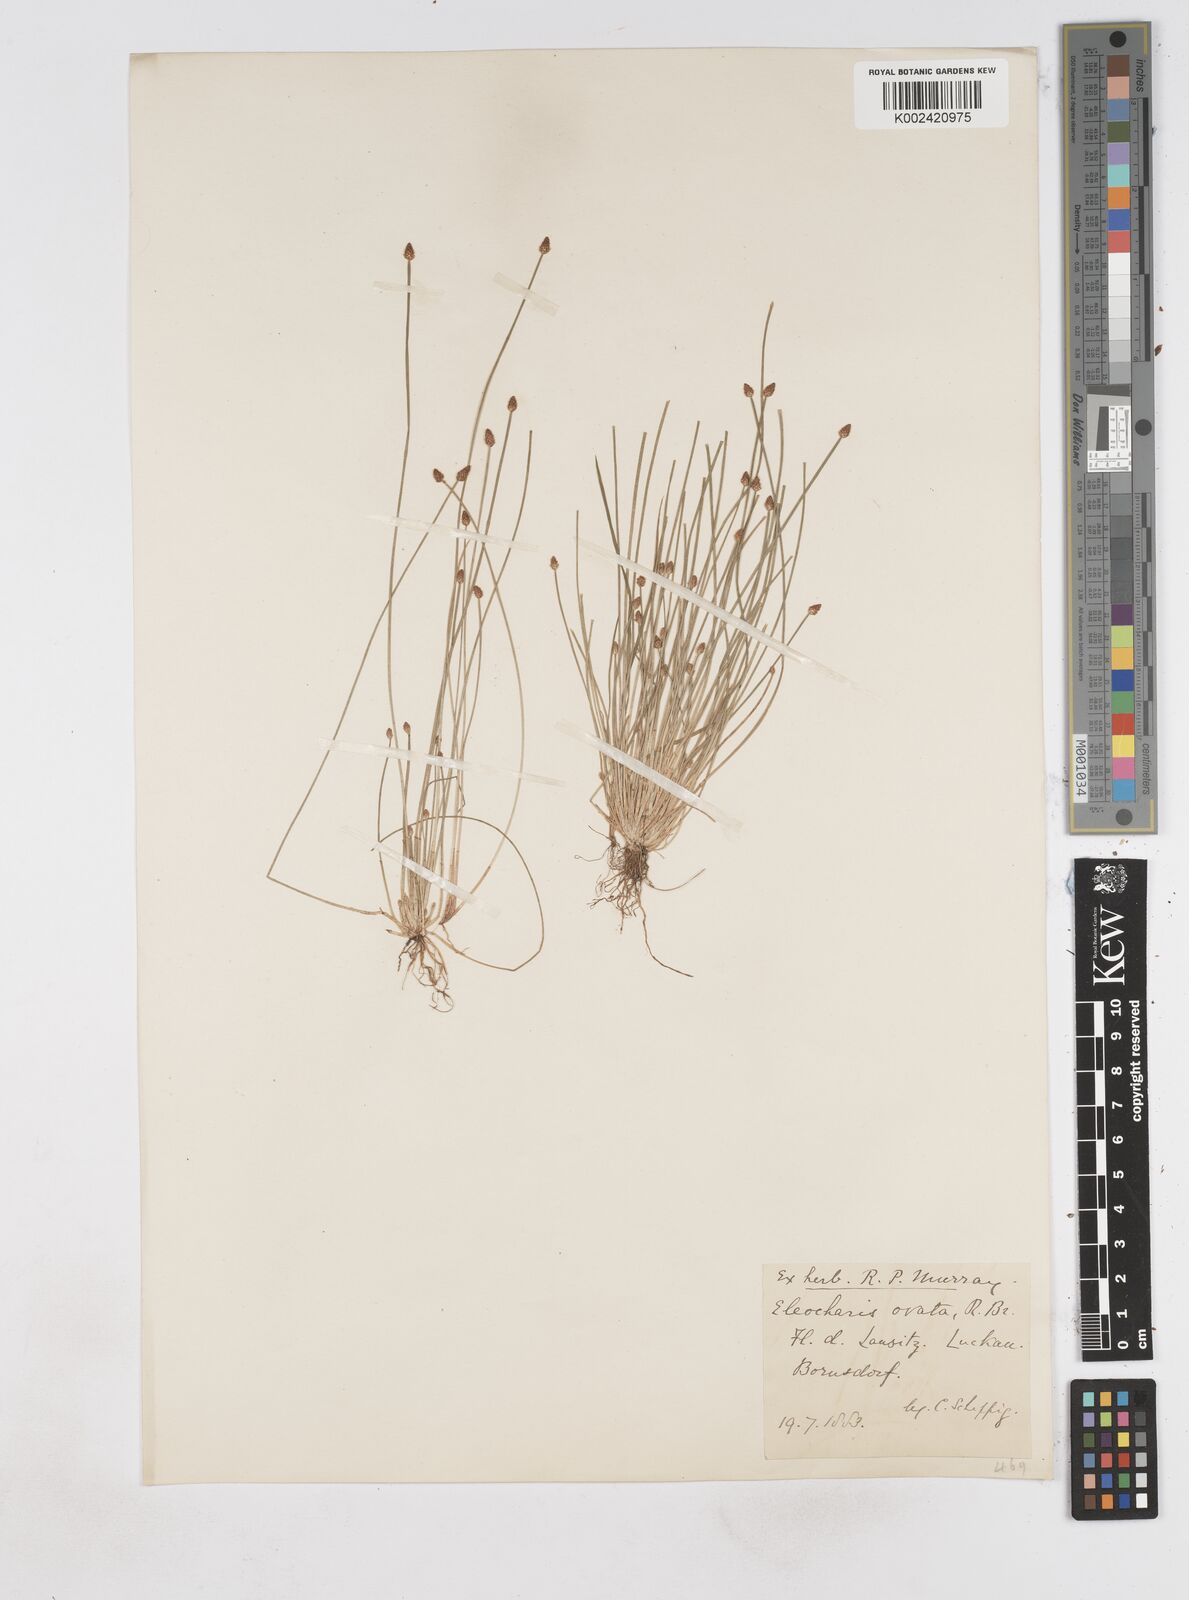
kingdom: Plantae
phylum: Tracheophyta
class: Liliopsida
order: Poales
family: Cyperaceae
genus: Eleocharis
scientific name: Eleocharis ovata
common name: Oval spike-rush
